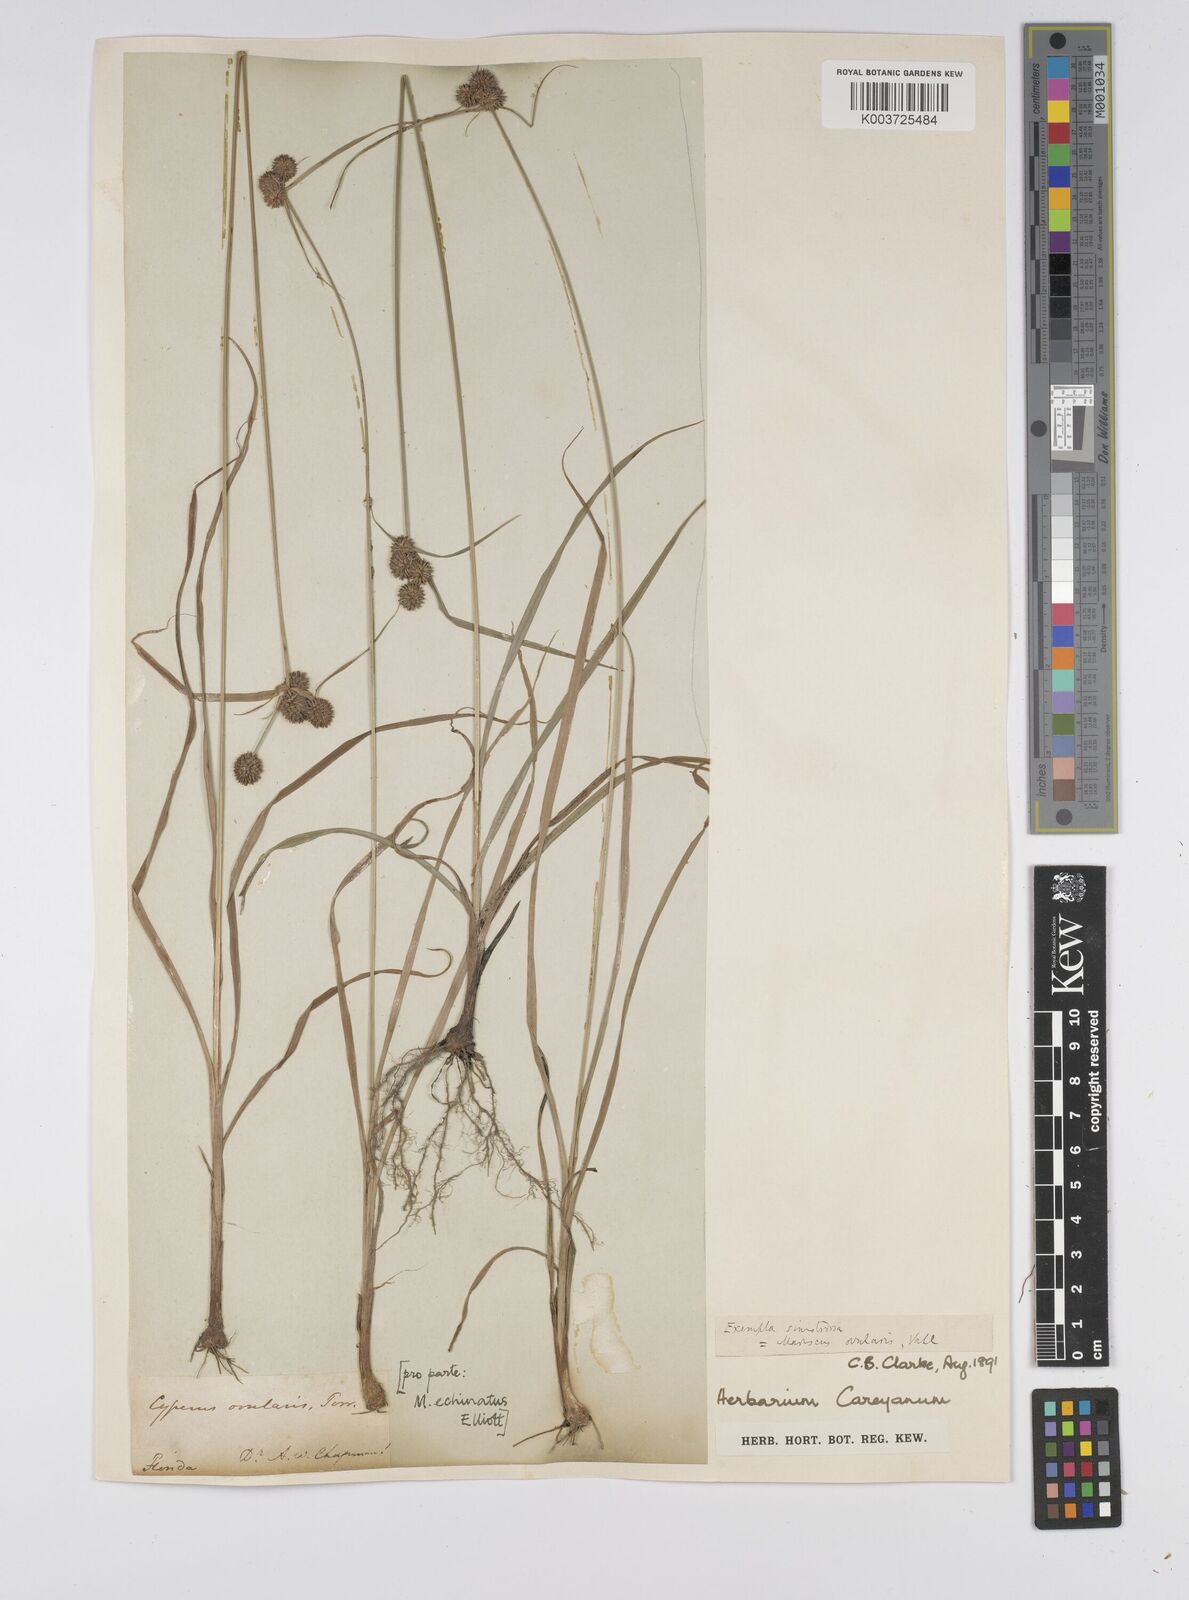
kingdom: Plantae
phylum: Tracheophyta
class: Liliopsida
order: Poales
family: Cyperaceae
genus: Cyperus
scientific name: Cyperus echinatus
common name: Teasel sedge
